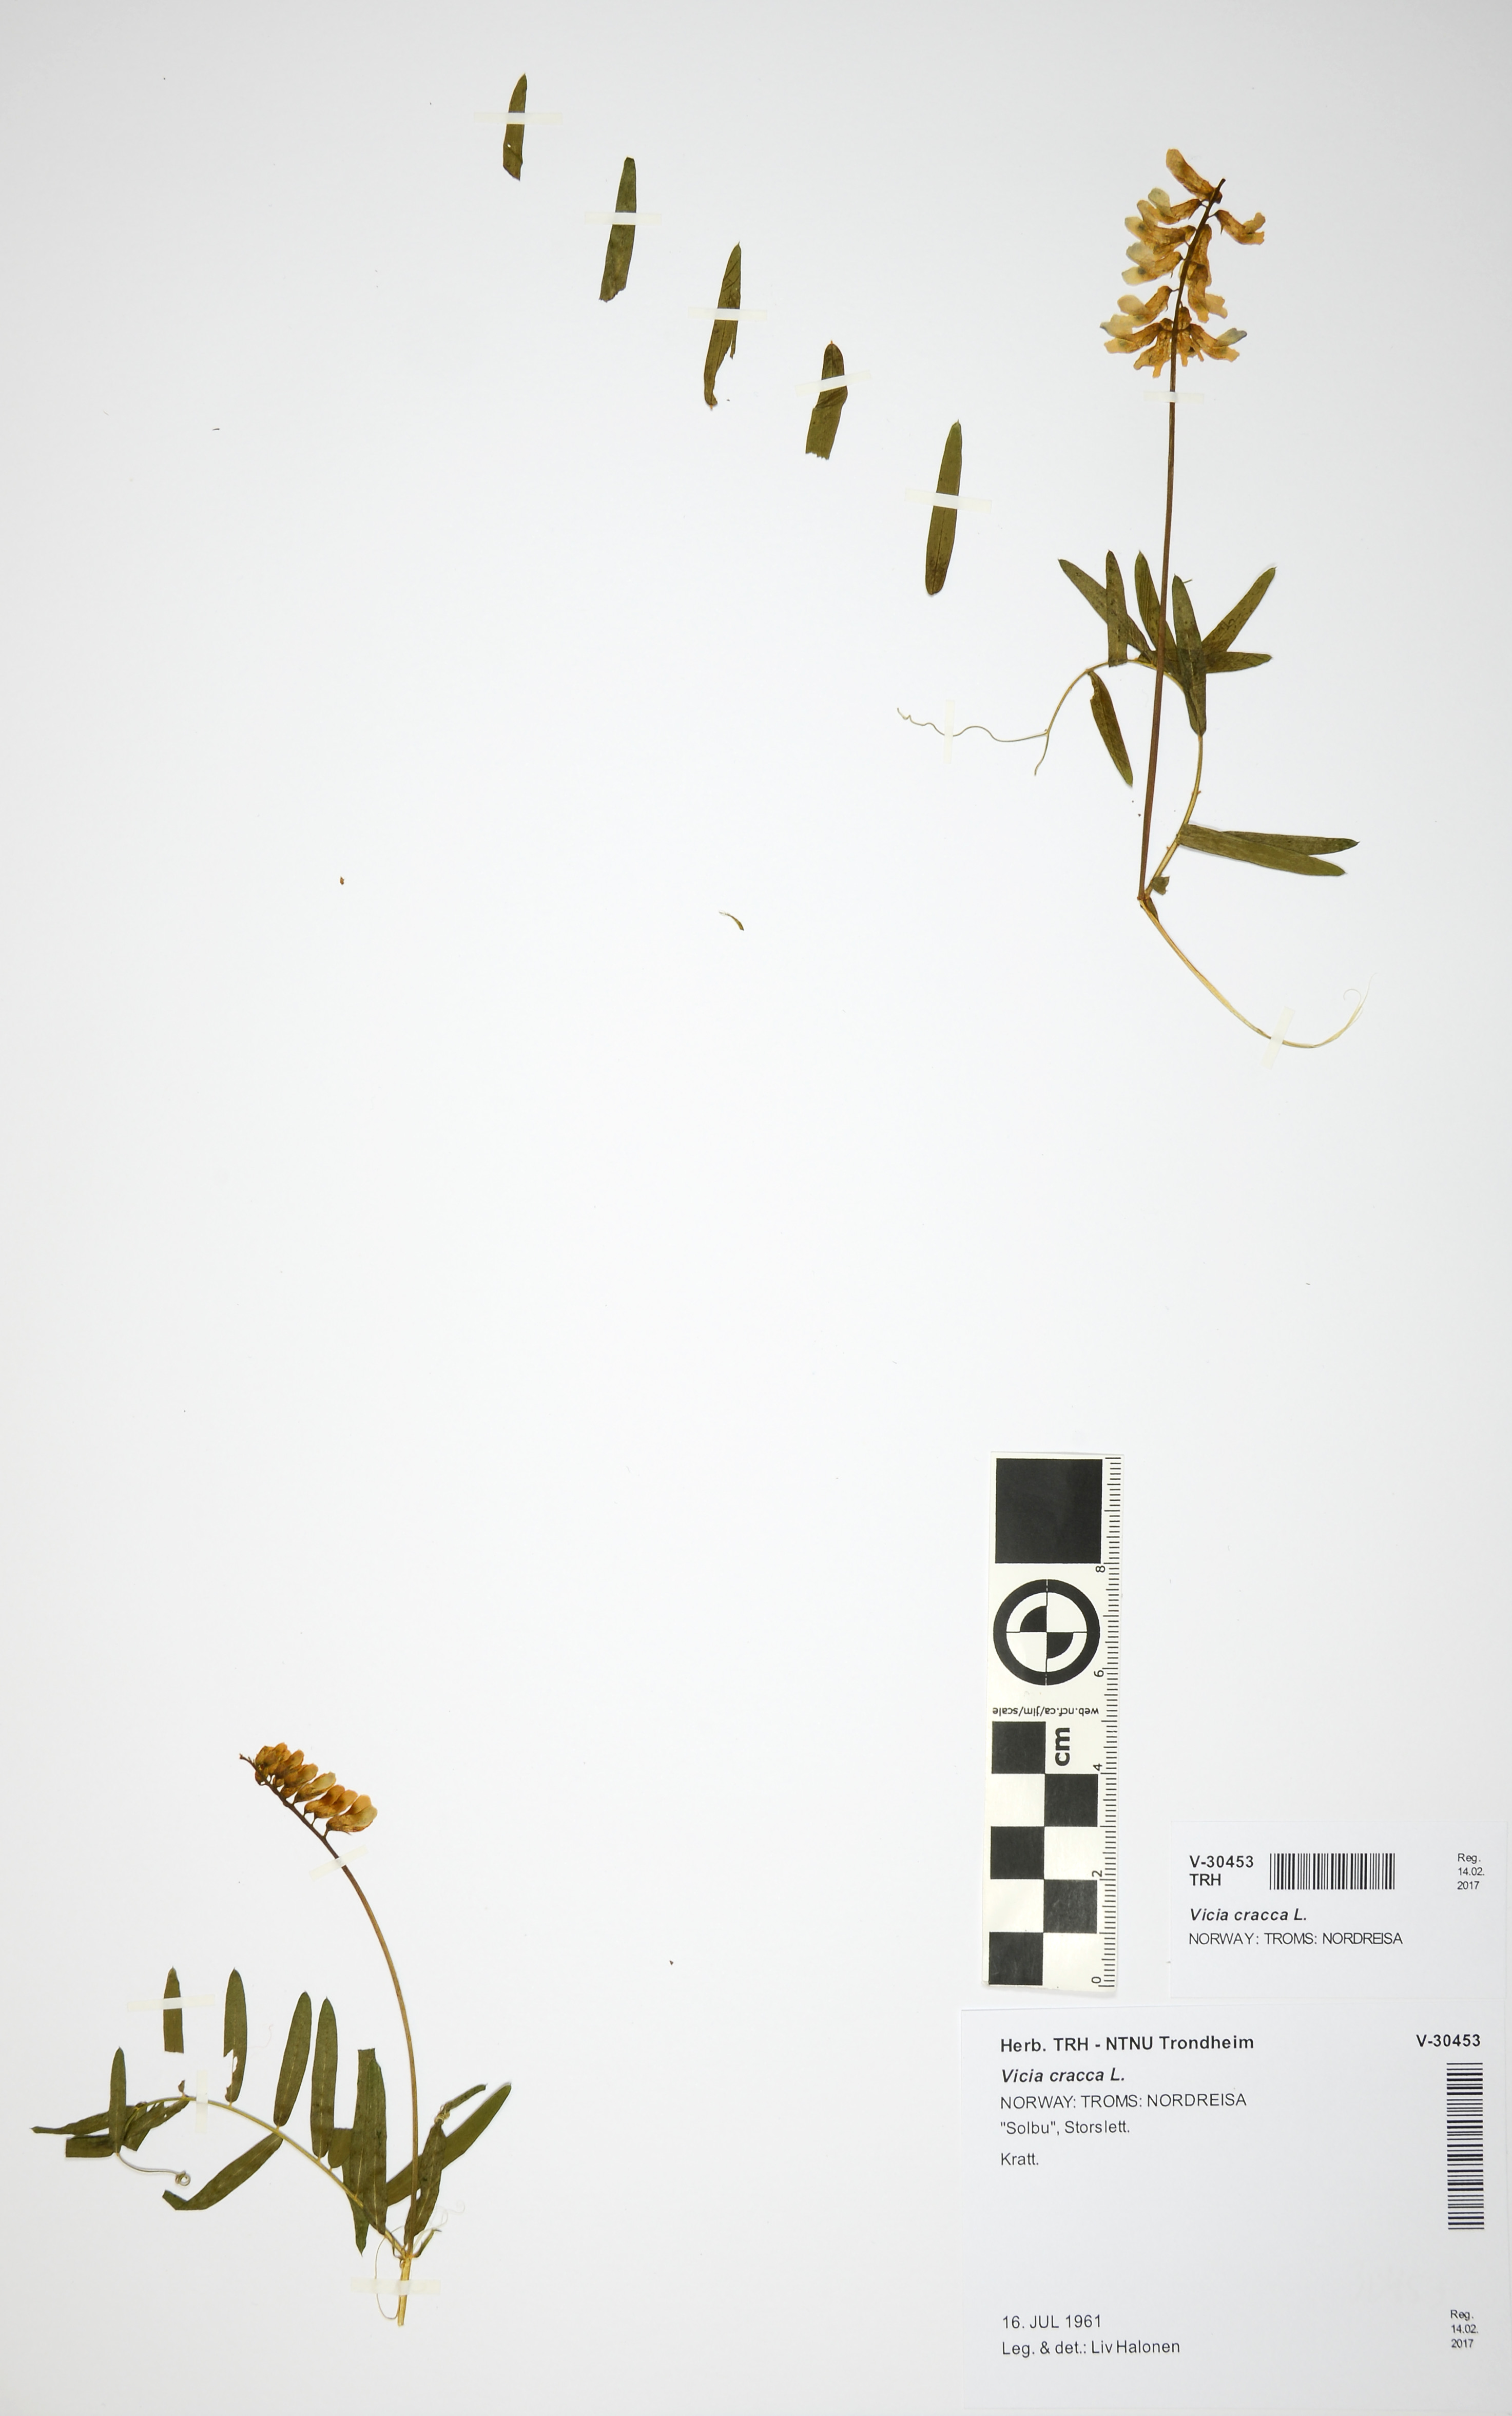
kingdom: Plantae
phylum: Tracheophyta
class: Magnoliopsida
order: Fabales
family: Fabaceae
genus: Vicia
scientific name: Vicia cracca
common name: Bird vetch
